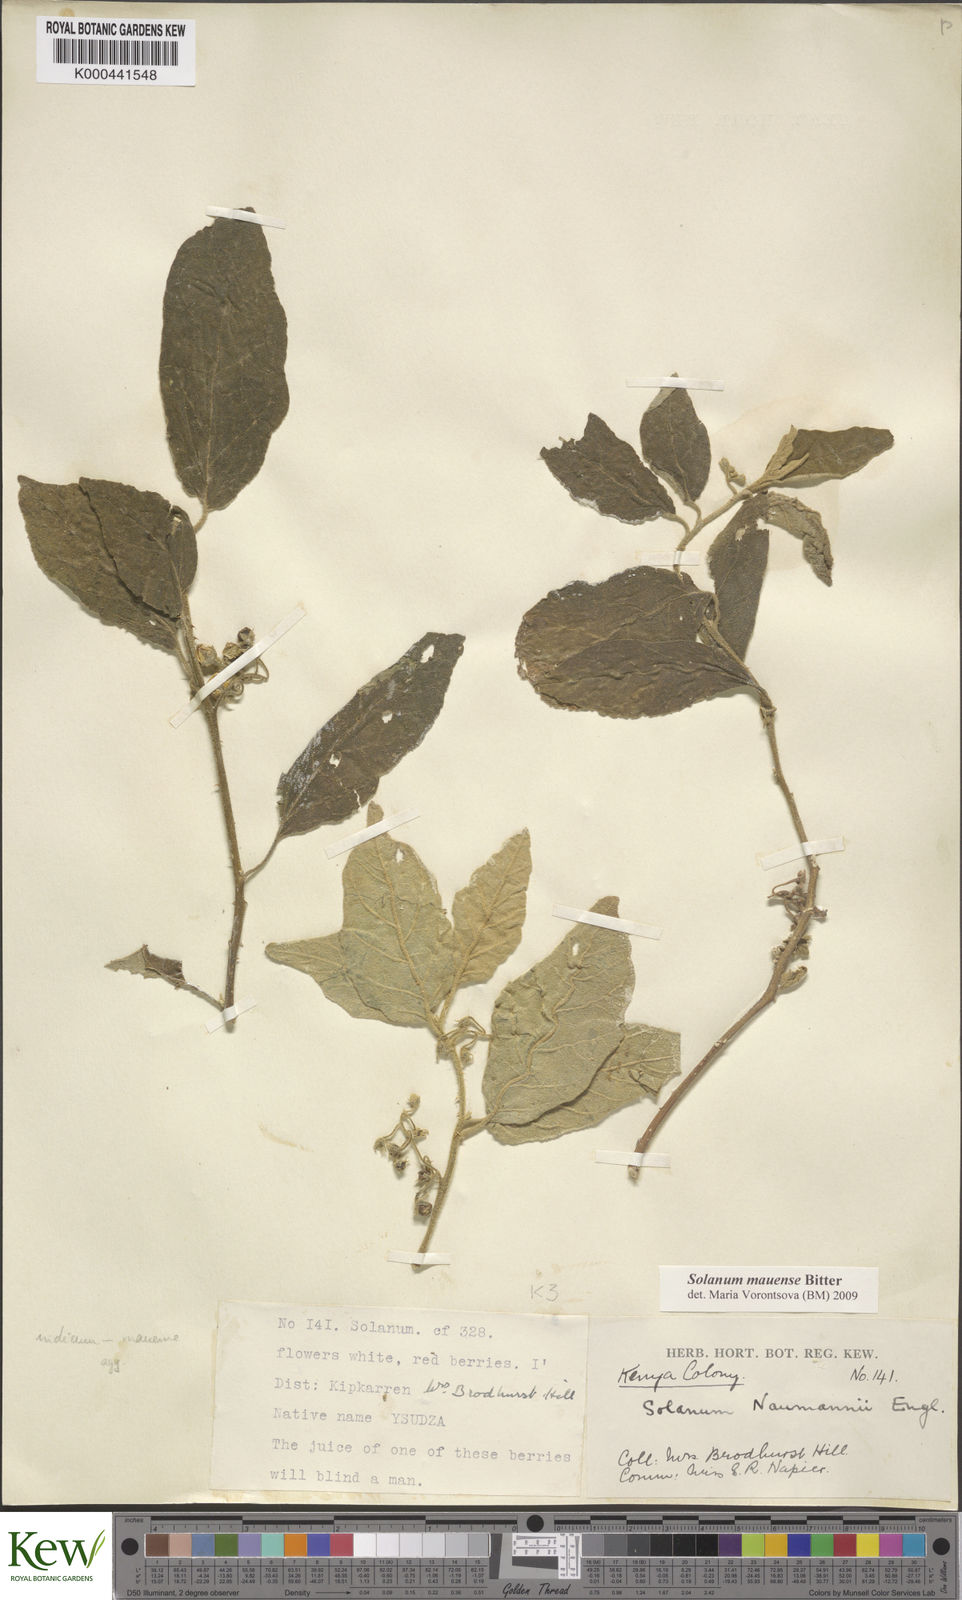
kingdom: Plantae
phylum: Tracheophyta
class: Magnoliopsida
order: Solanales
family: Solanaceae
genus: Solanum
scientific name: Solanum mauense
